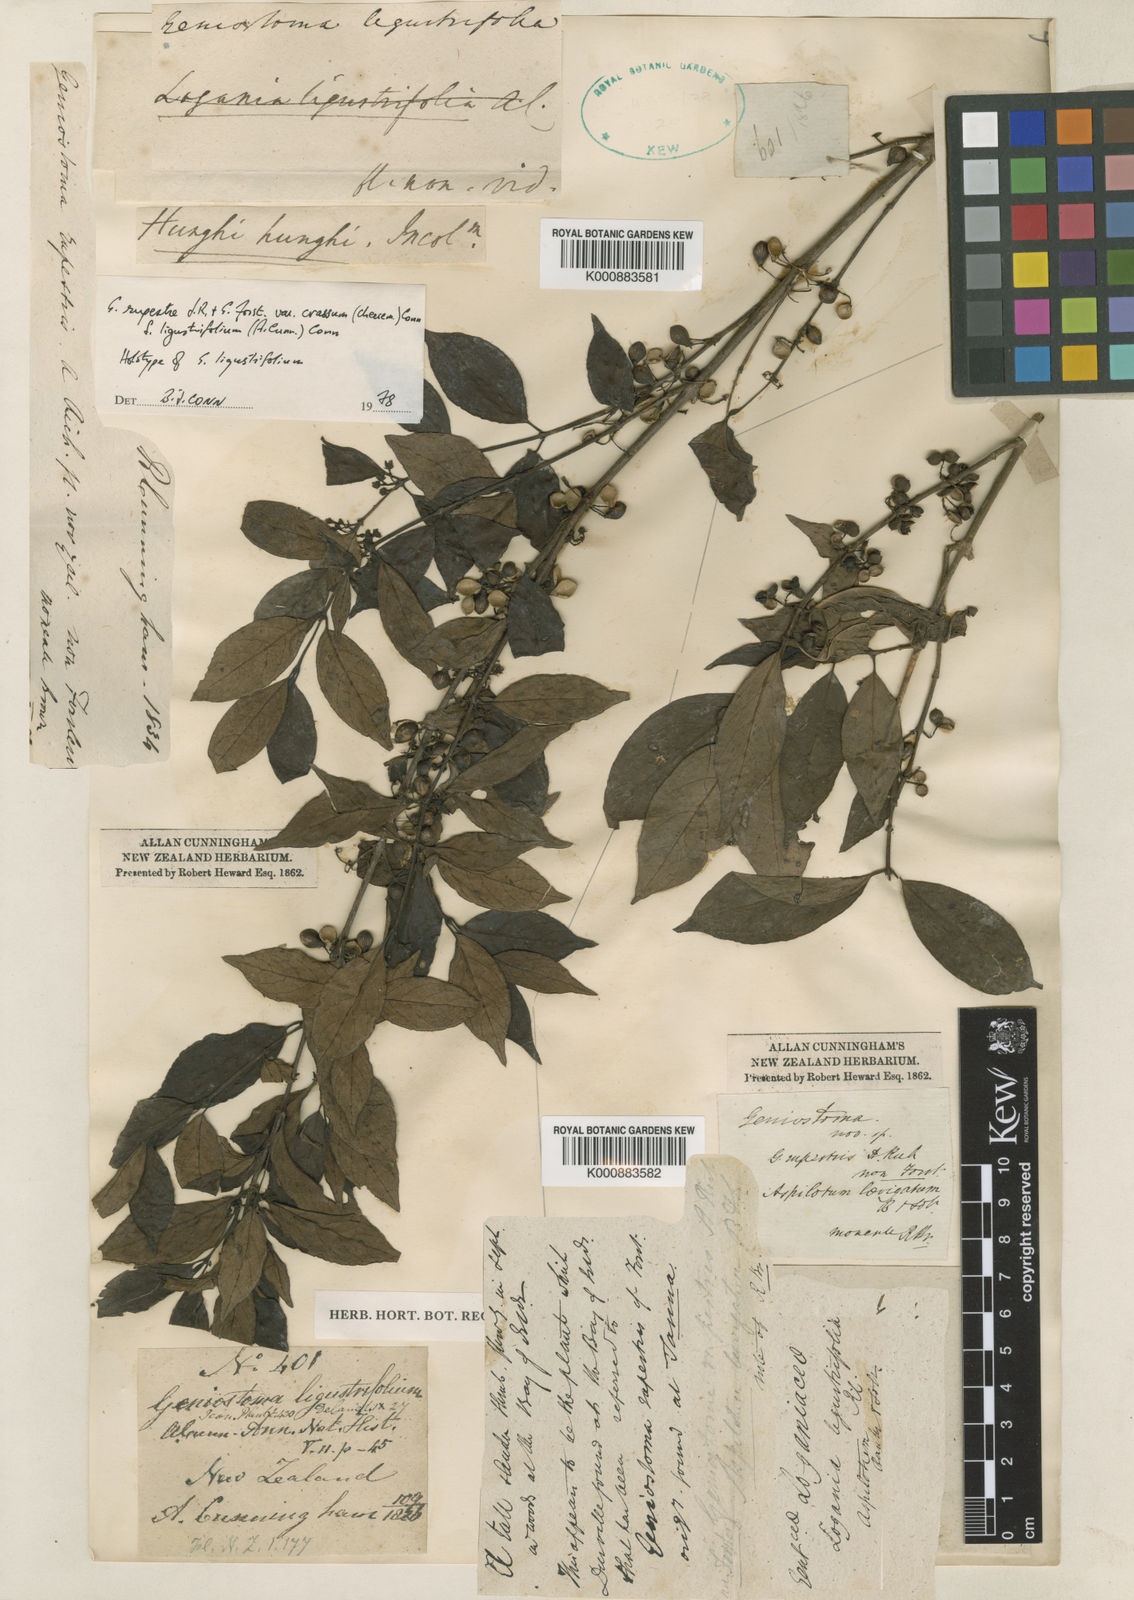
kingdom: Plantae
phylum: Tracheophyta
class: Magnoliopsida
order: Gentianales
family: Loganiaceae
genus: Geniostoma
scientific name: Geniostoma ligustrifolium
